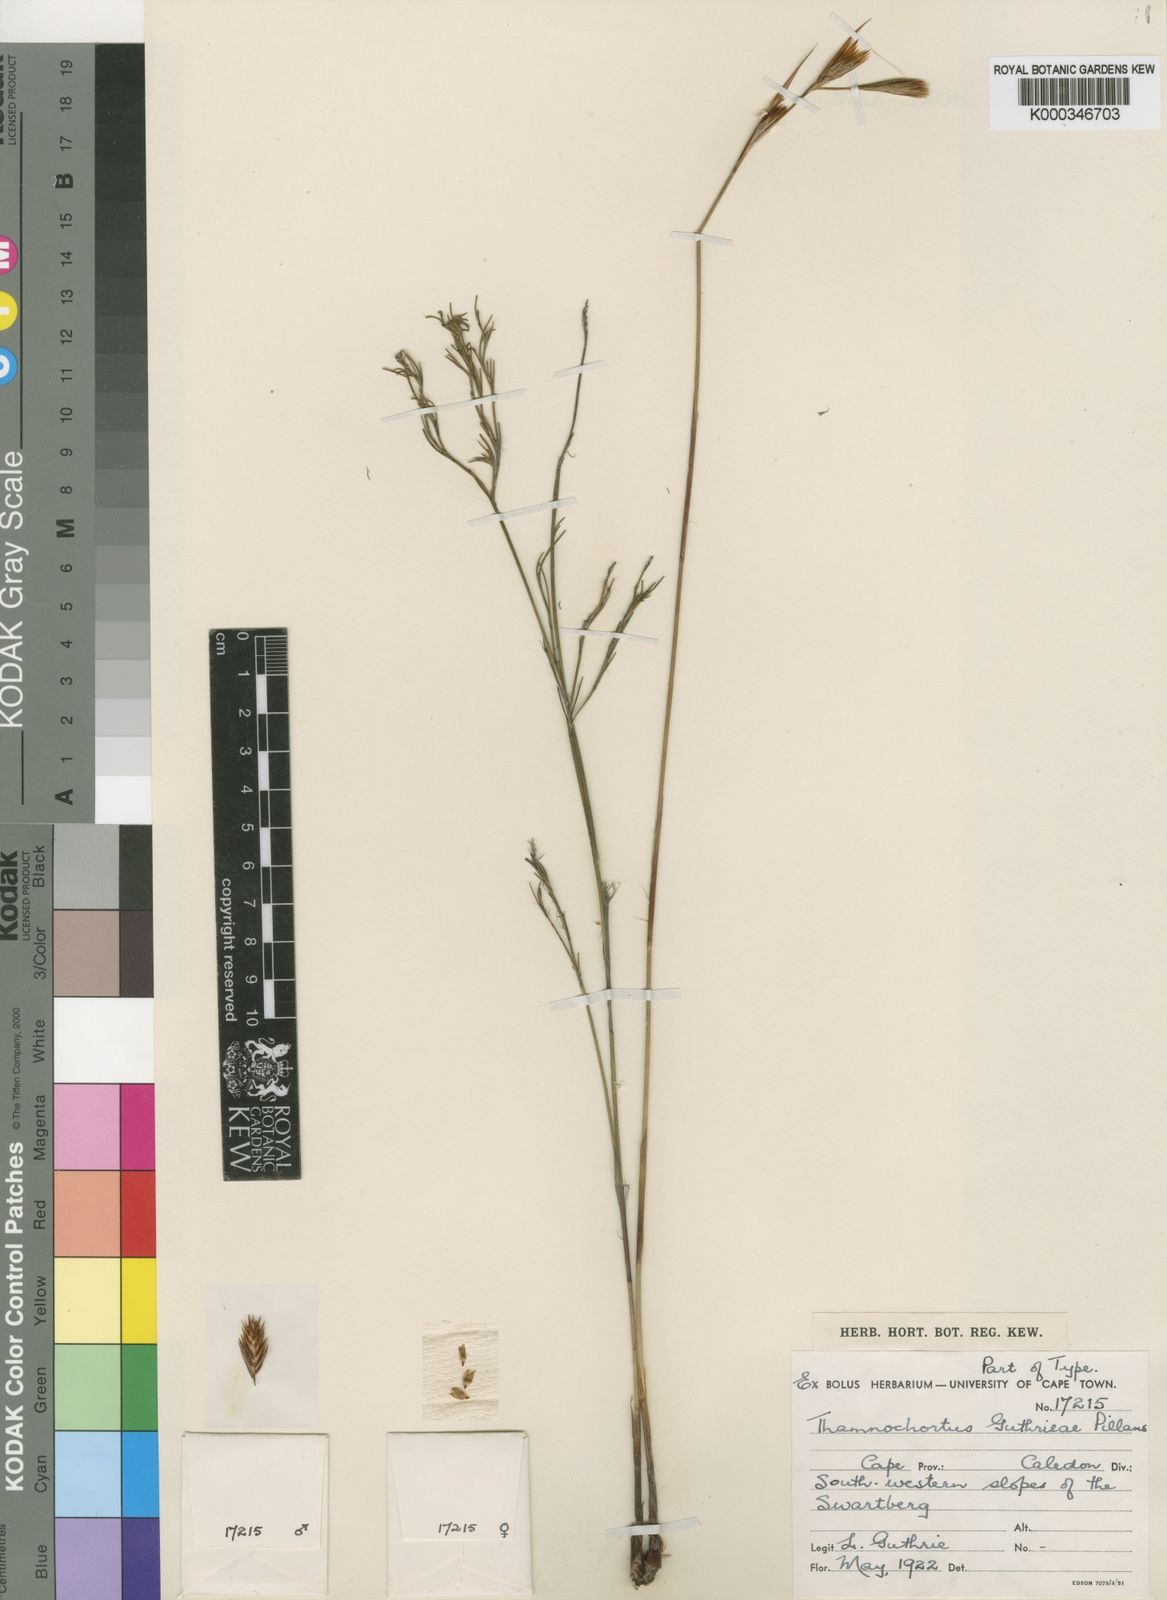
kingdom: Plantae
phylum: Tracheophyta
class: Liliopsida
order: Poales
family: Restionaceae
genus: Thamnochortus
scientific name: Thamnochortus guthrieae
